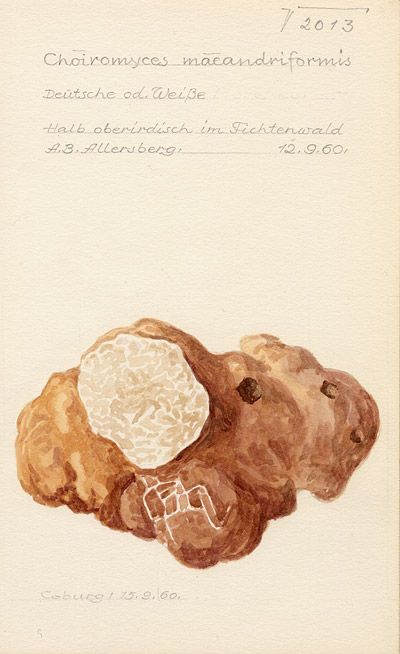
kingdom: Fungi
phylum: Ascomycota
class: Pezizomycetes
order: Pezizales
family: Tuberaceae
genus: Choiromyces
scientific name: Choiromyces meandriformis
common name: White truffle
